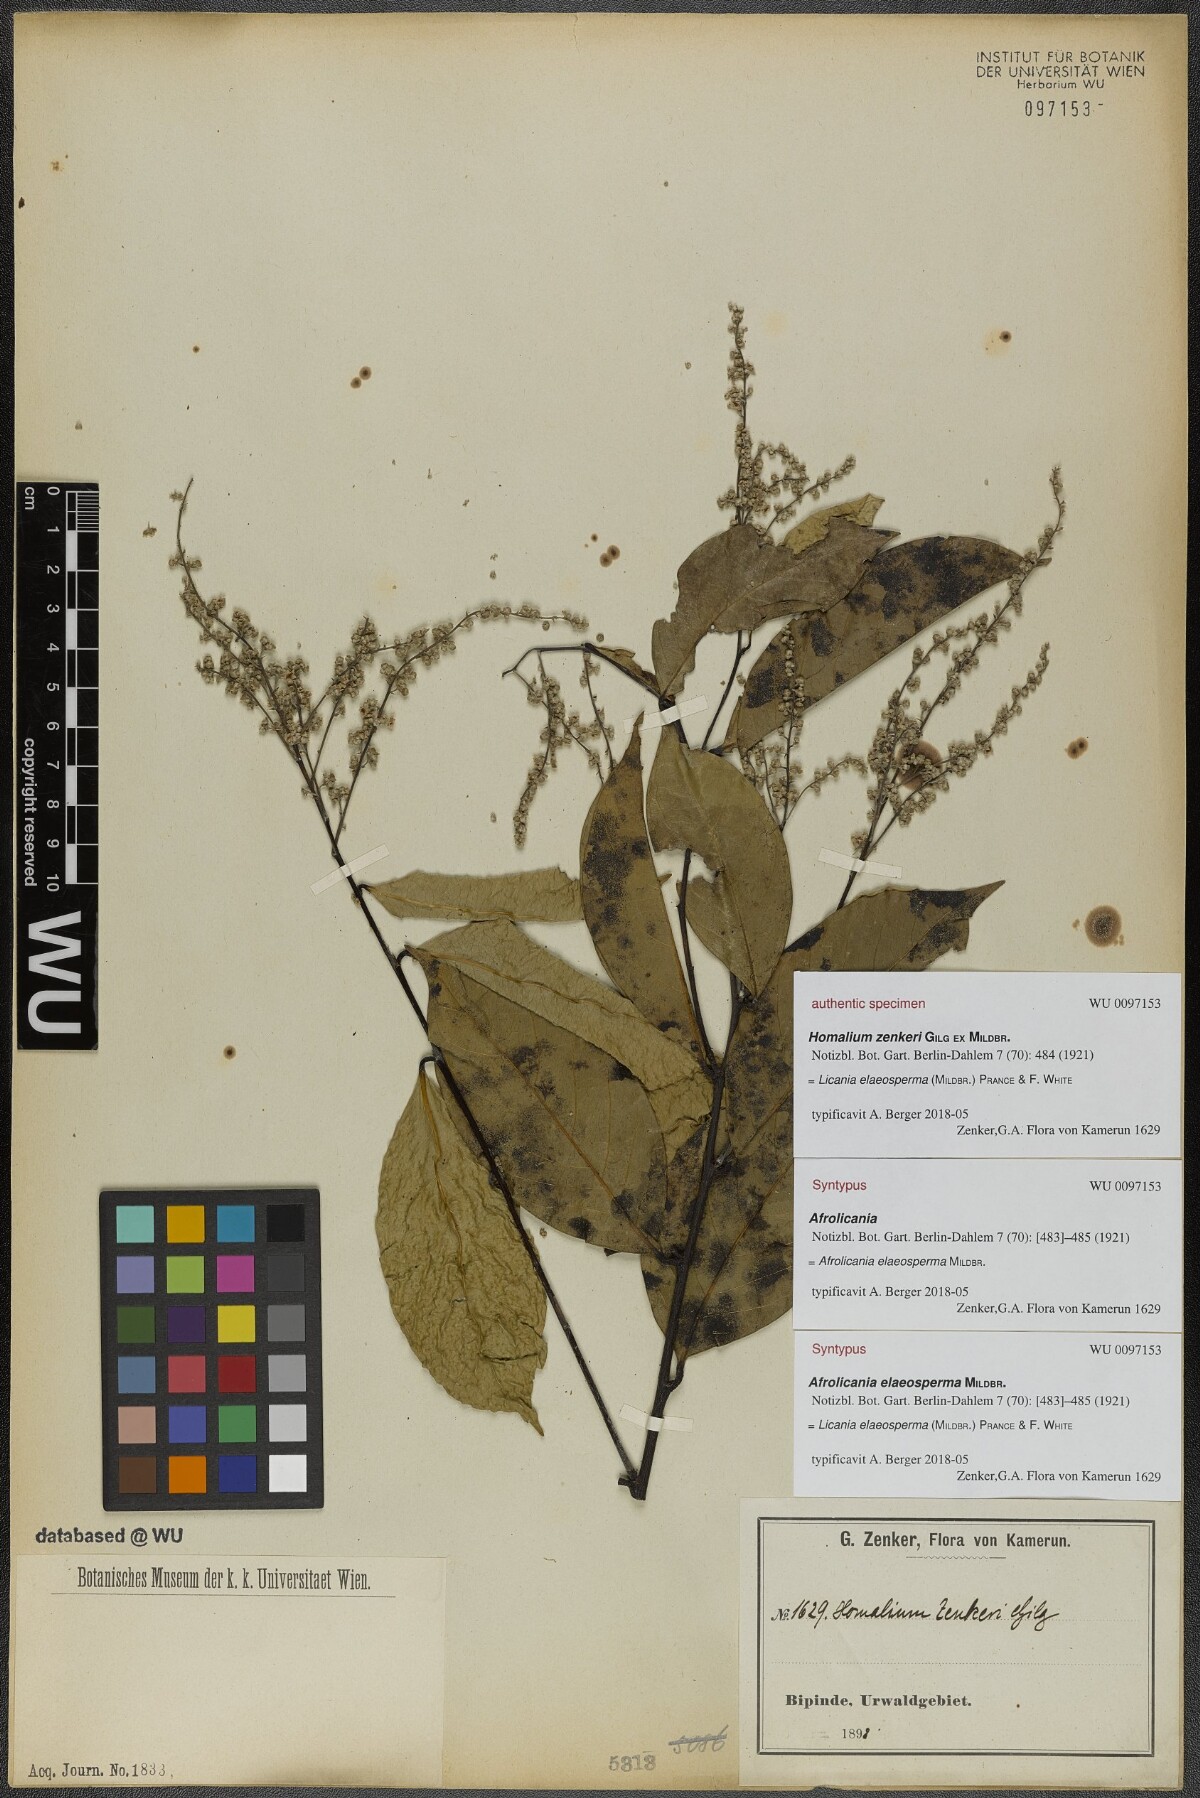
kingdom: Plantae
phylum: Tracheophyta
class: Magnoliopsida
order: Malpighiales
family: Chrysobalanaceae
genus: Afrolicania
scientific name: Afrolicania elaeosperma
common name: Nikko
